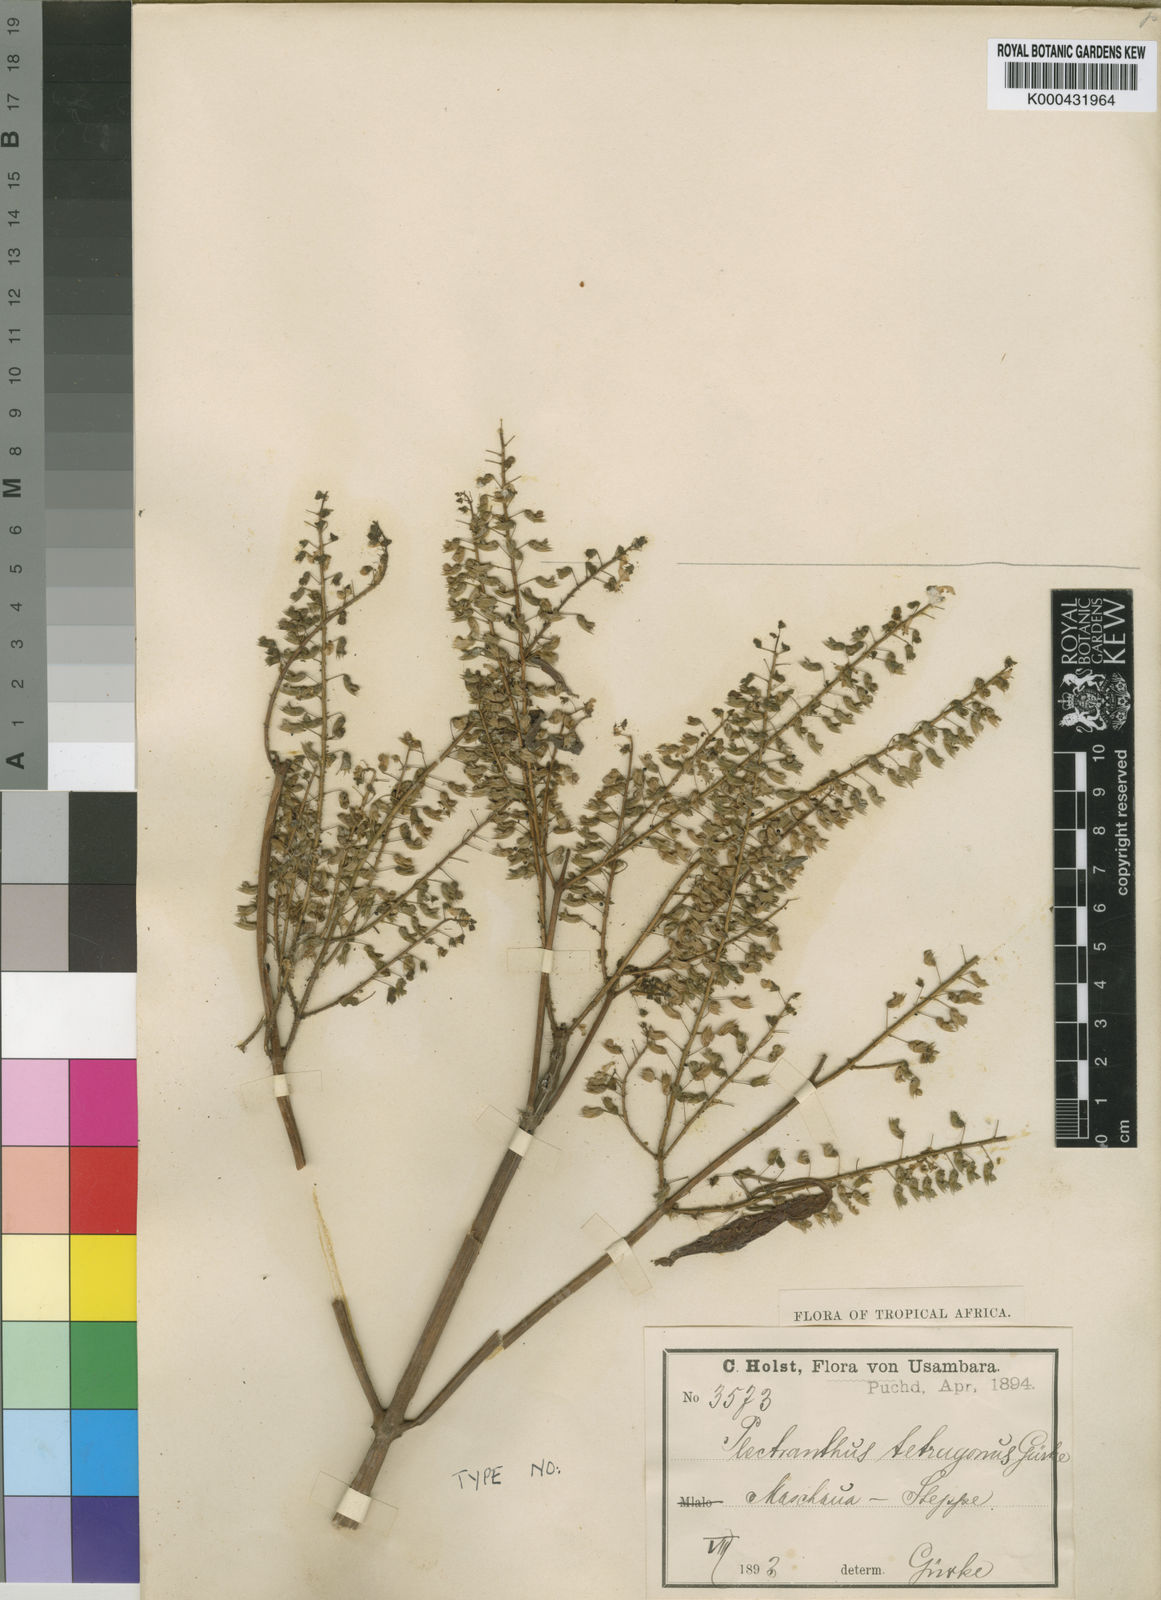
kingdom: Plantae
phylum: Tracheophyta
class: Magnoliopsida
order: Lamiales
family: Lamiaceae
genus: Plectranthus
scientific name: Plectranthus
